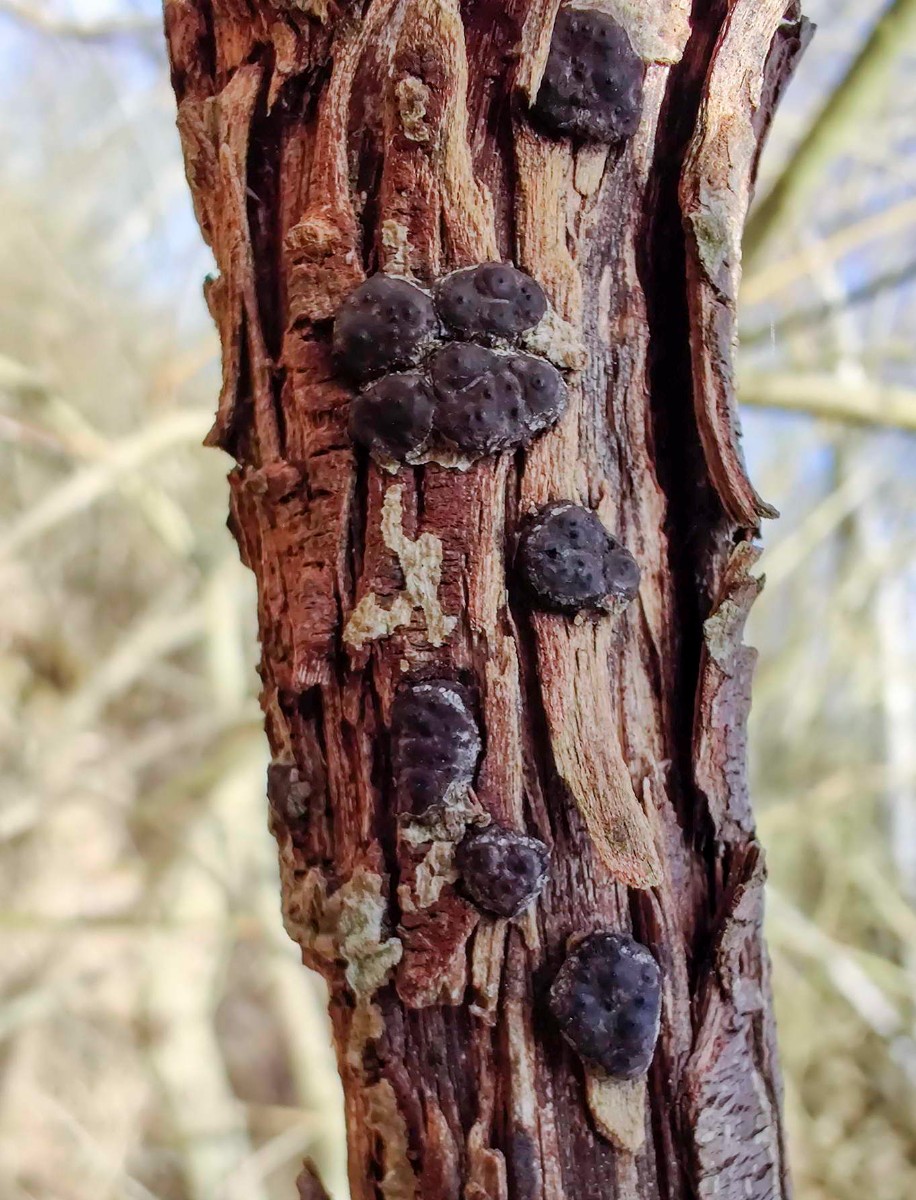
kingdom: Fungi
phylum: Ascomycota
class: Sordariomycetes
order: Xylariales
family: Xylariaceae
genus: Entoleuca
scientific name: Entoleuca mammata
